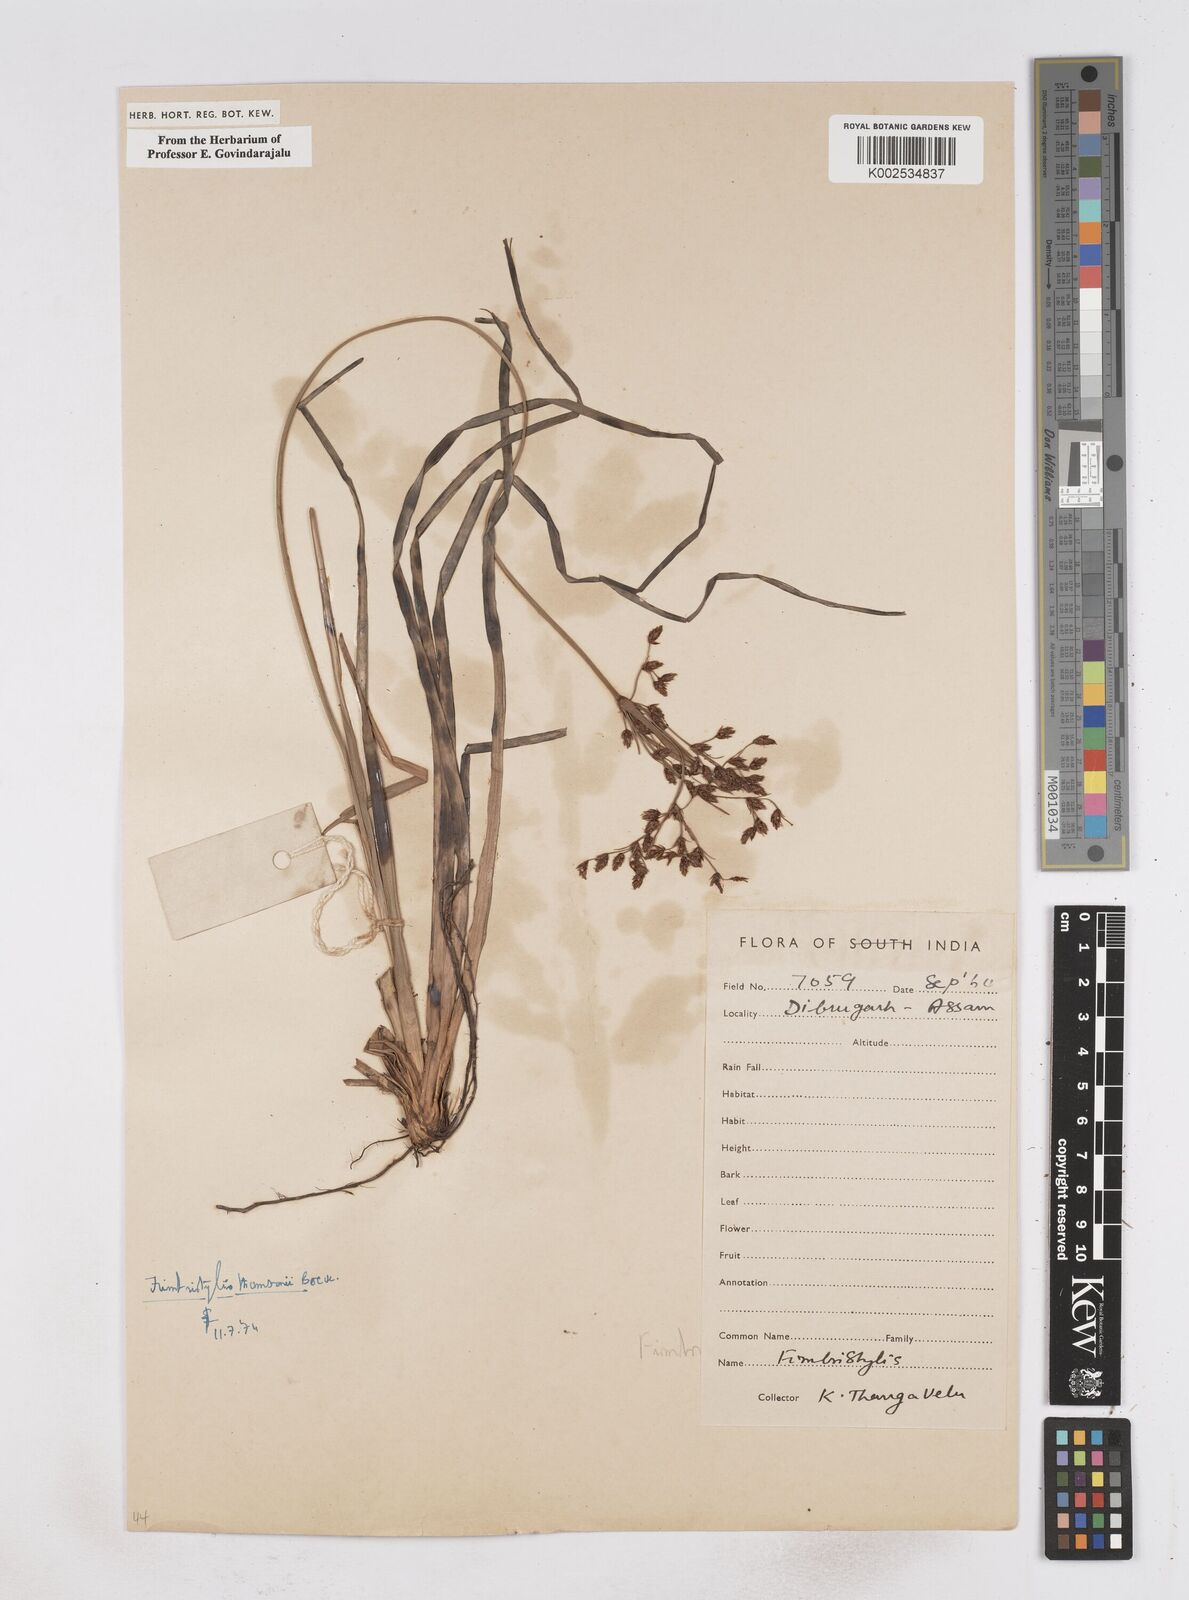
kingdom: Plantae
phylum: Tracheophyta
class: Liliopsida
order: Poales
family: Cyperaceae
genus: Fimbristylis
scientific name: Fimbristylis thomsonii
